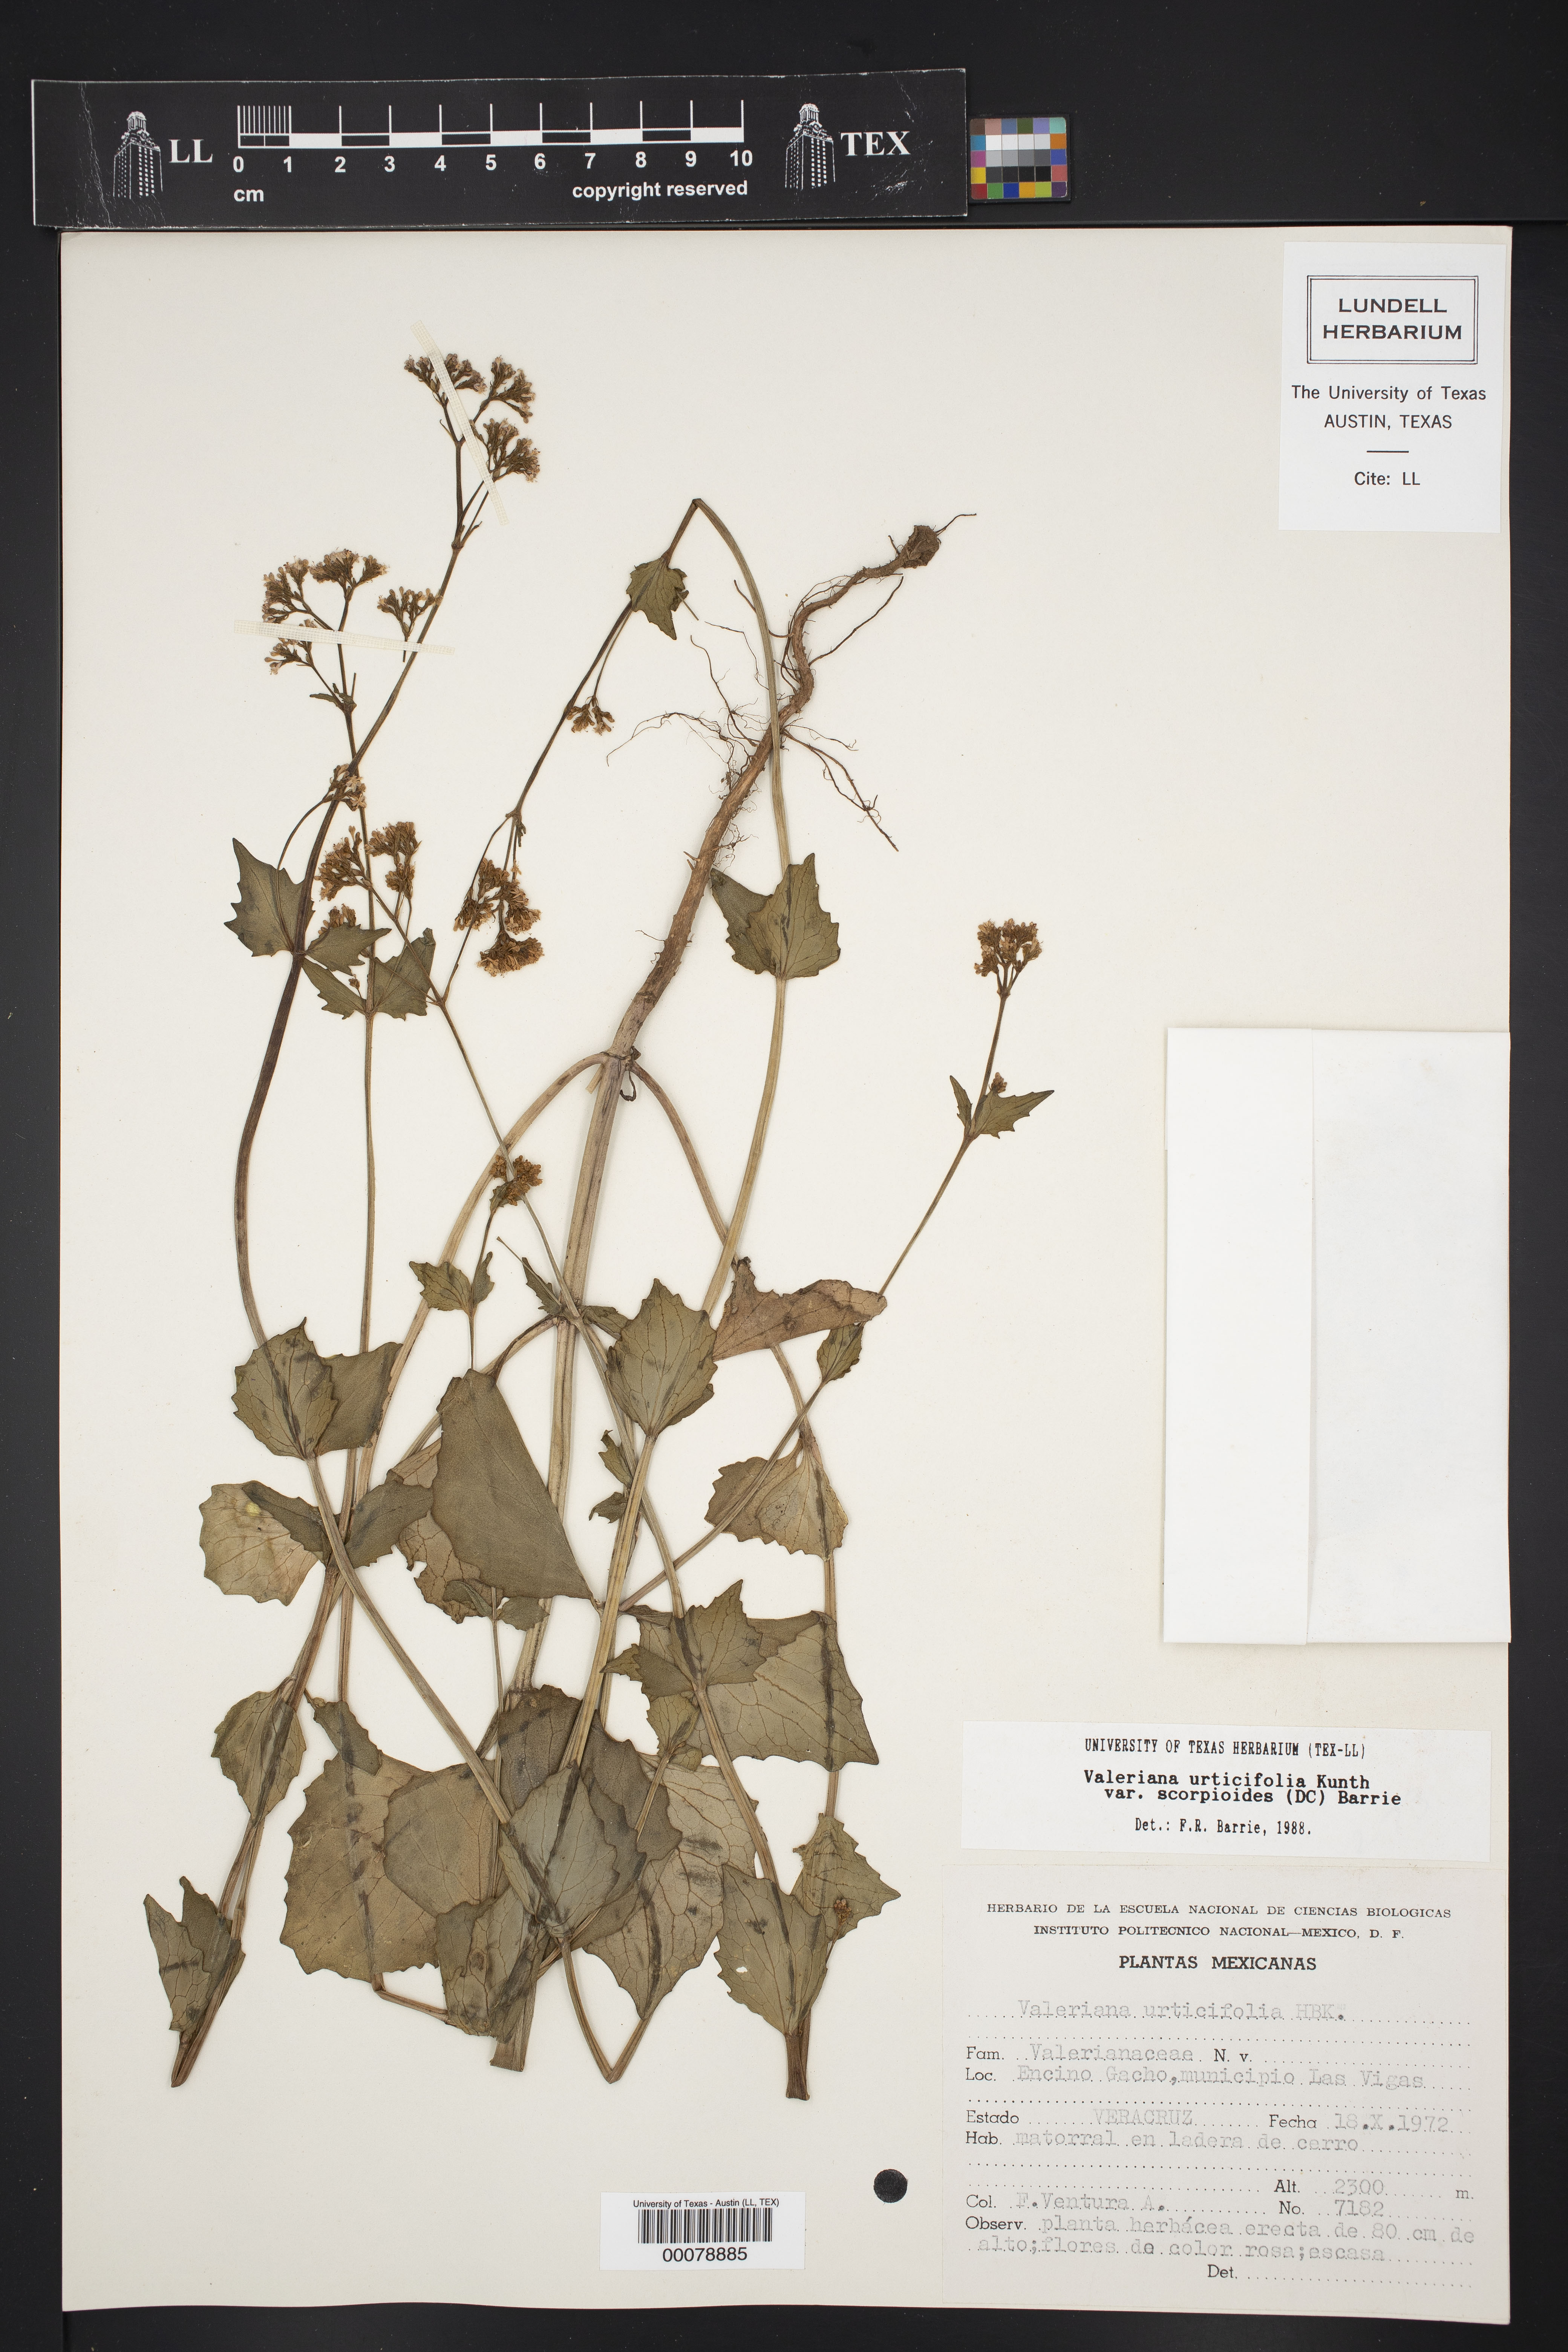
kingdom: Plantae
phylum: Tracheophyta
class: Magnoliopsida
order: Dipsacales
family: Caprifoliaceae
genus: Valeriana
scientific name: Valeriana urticifolia
